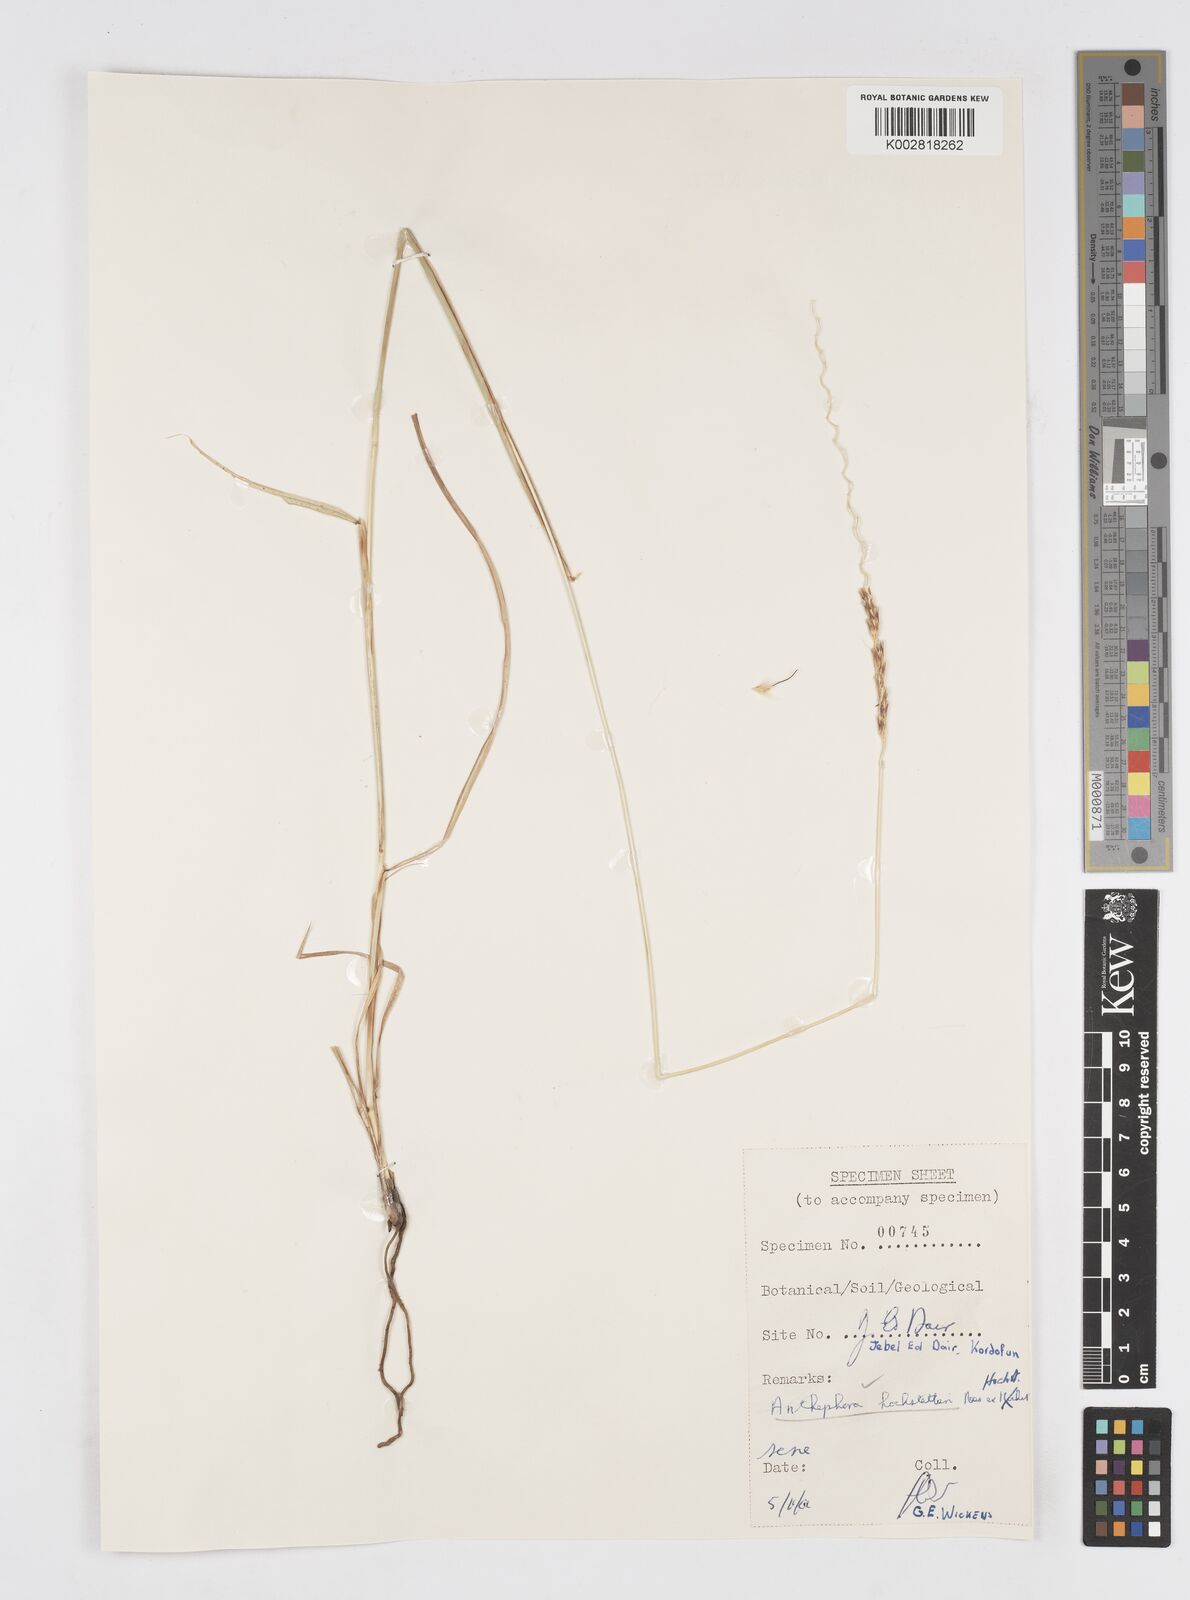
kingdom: Plantae
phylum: Tracheophyta
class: Liliopsida
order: Poales
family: Poaceae
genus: Anthephora
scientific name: Anthephora nigritana
